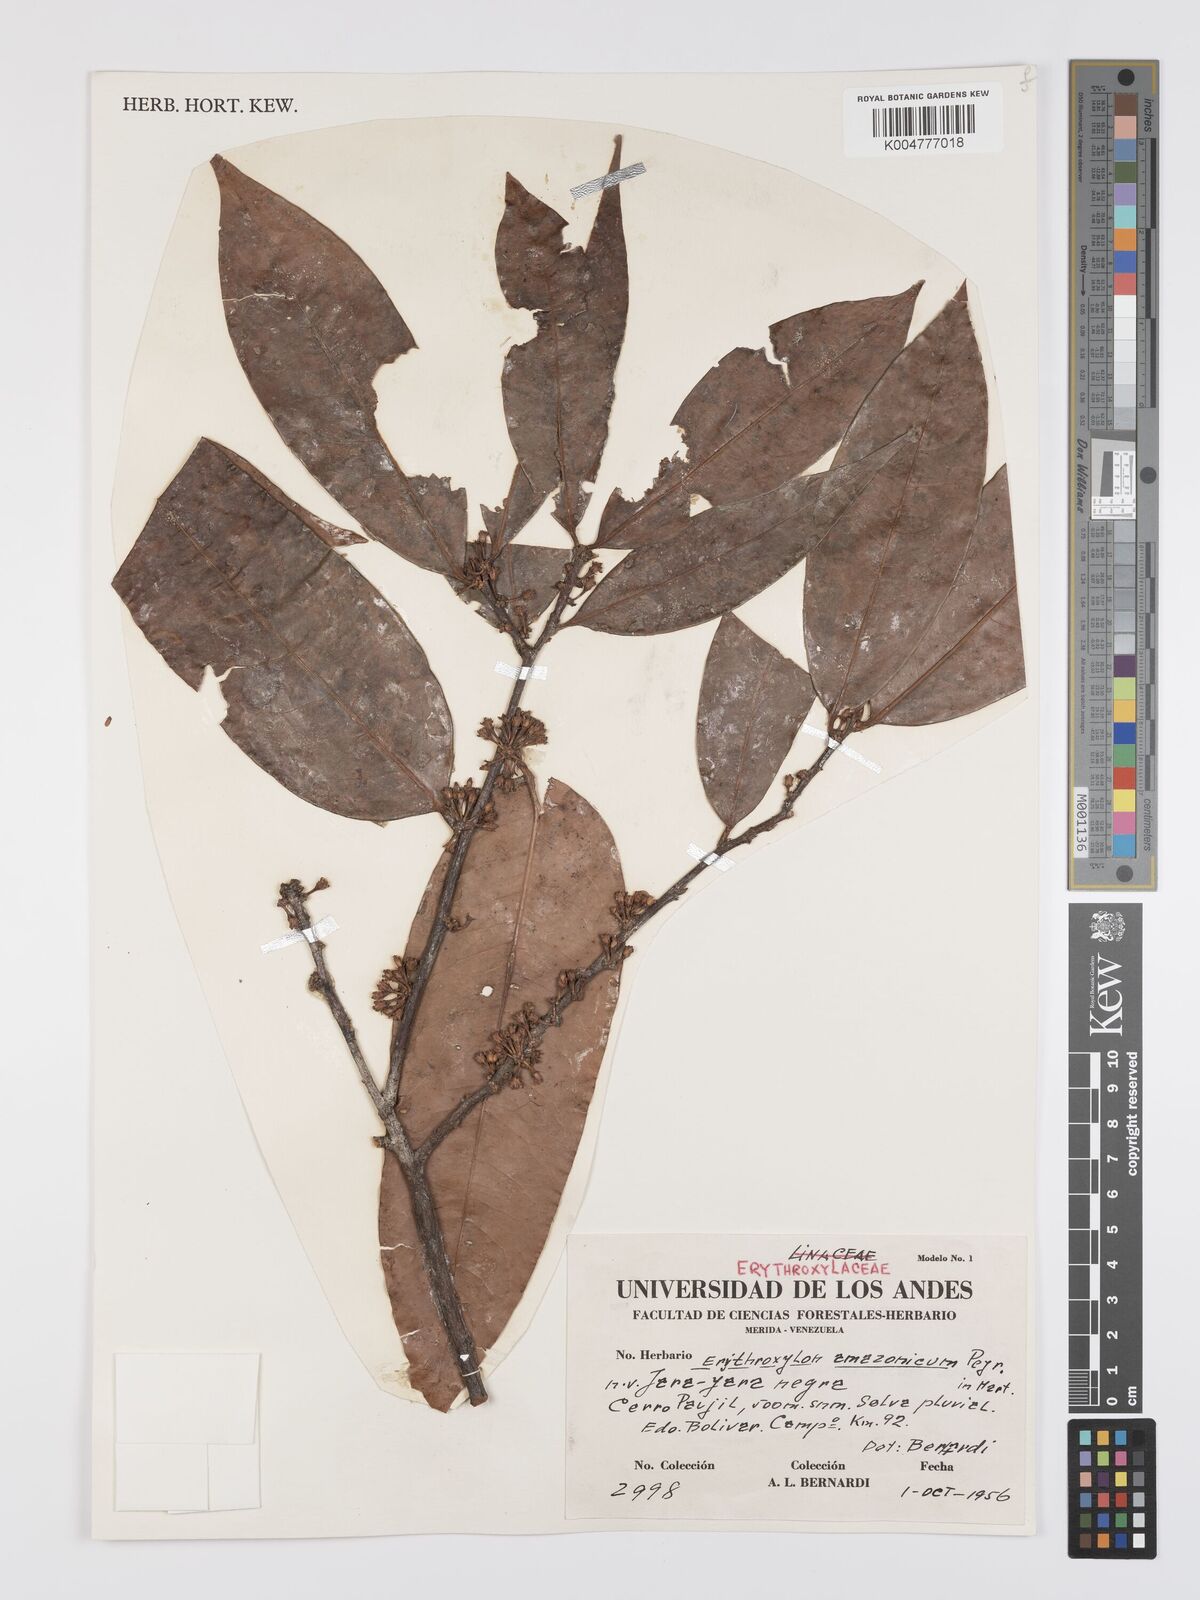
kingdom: Plantae
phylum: Tracheophyta
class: Magnoliopsida
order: Malpighiales
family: Erythroxylaceae
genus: Erythroxylum
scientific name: Erythroxylum amazonicum
